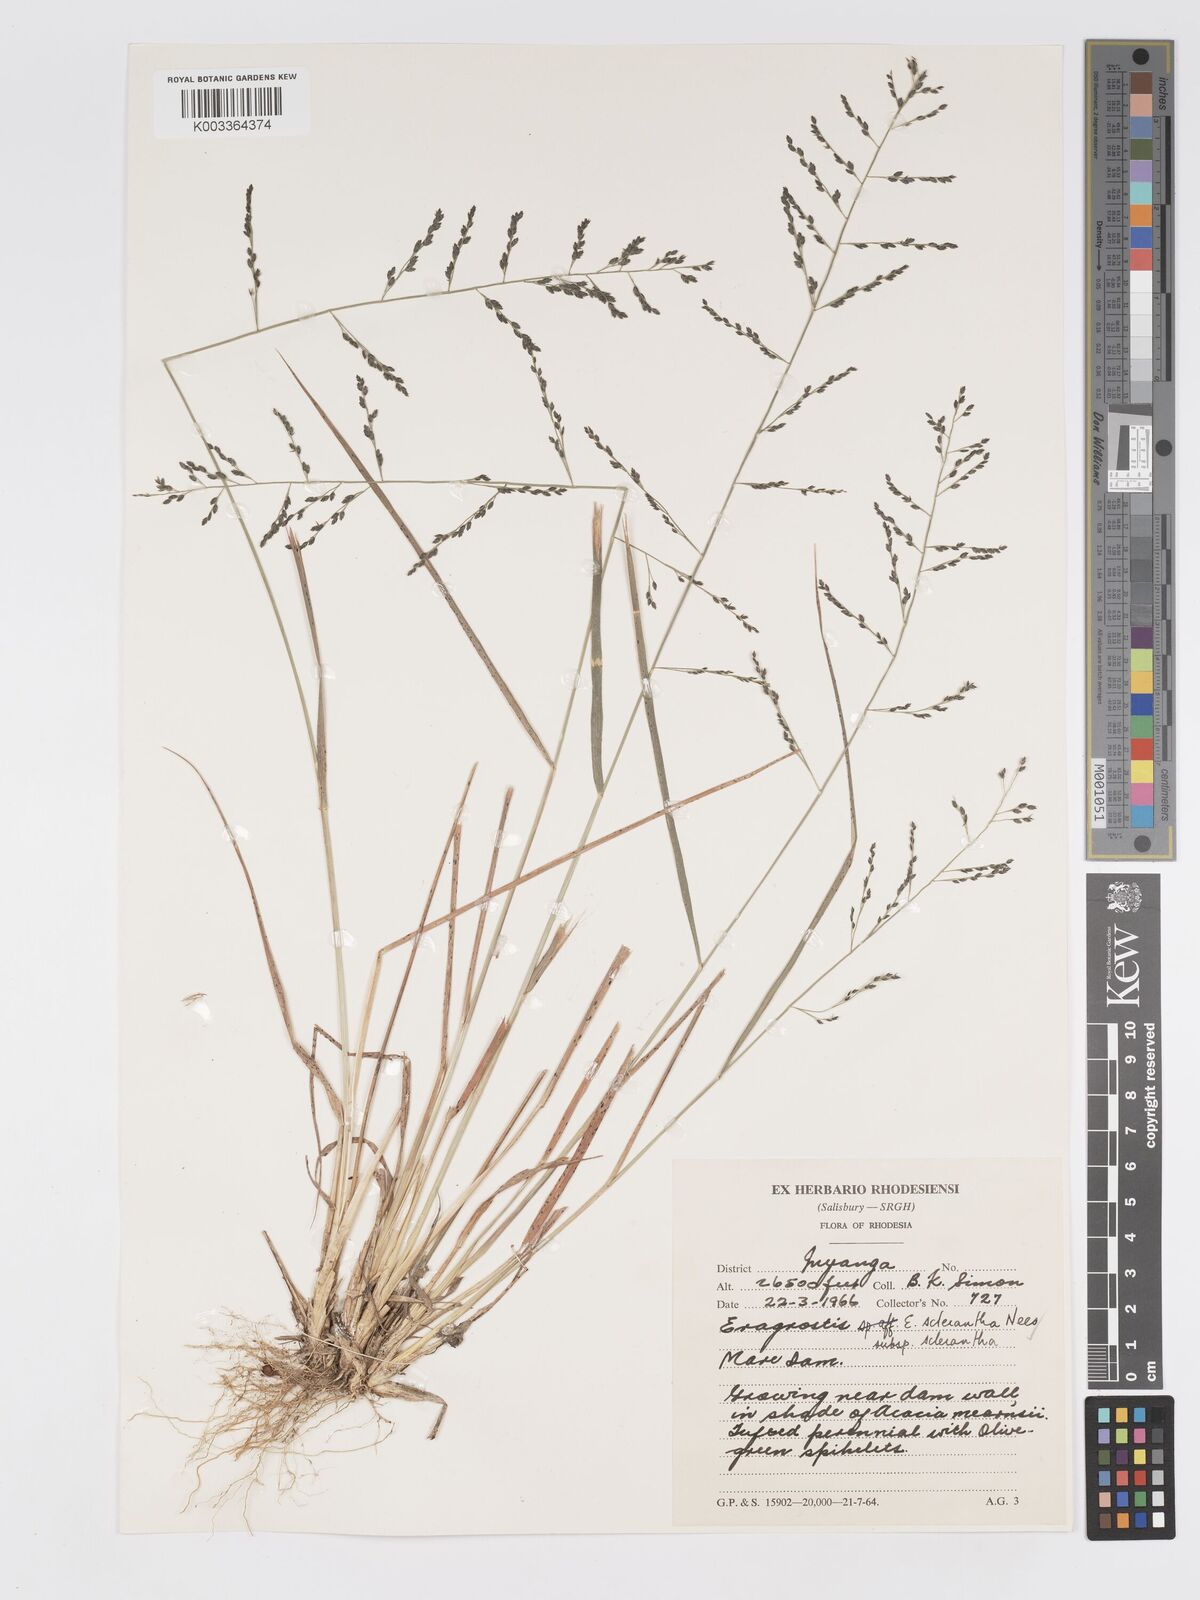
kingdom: Plantae
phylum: Tracheophyta
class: Liliopsida
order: Poales
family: Poaceae
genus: Eragrostis
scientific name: Eragrostis racemosa
